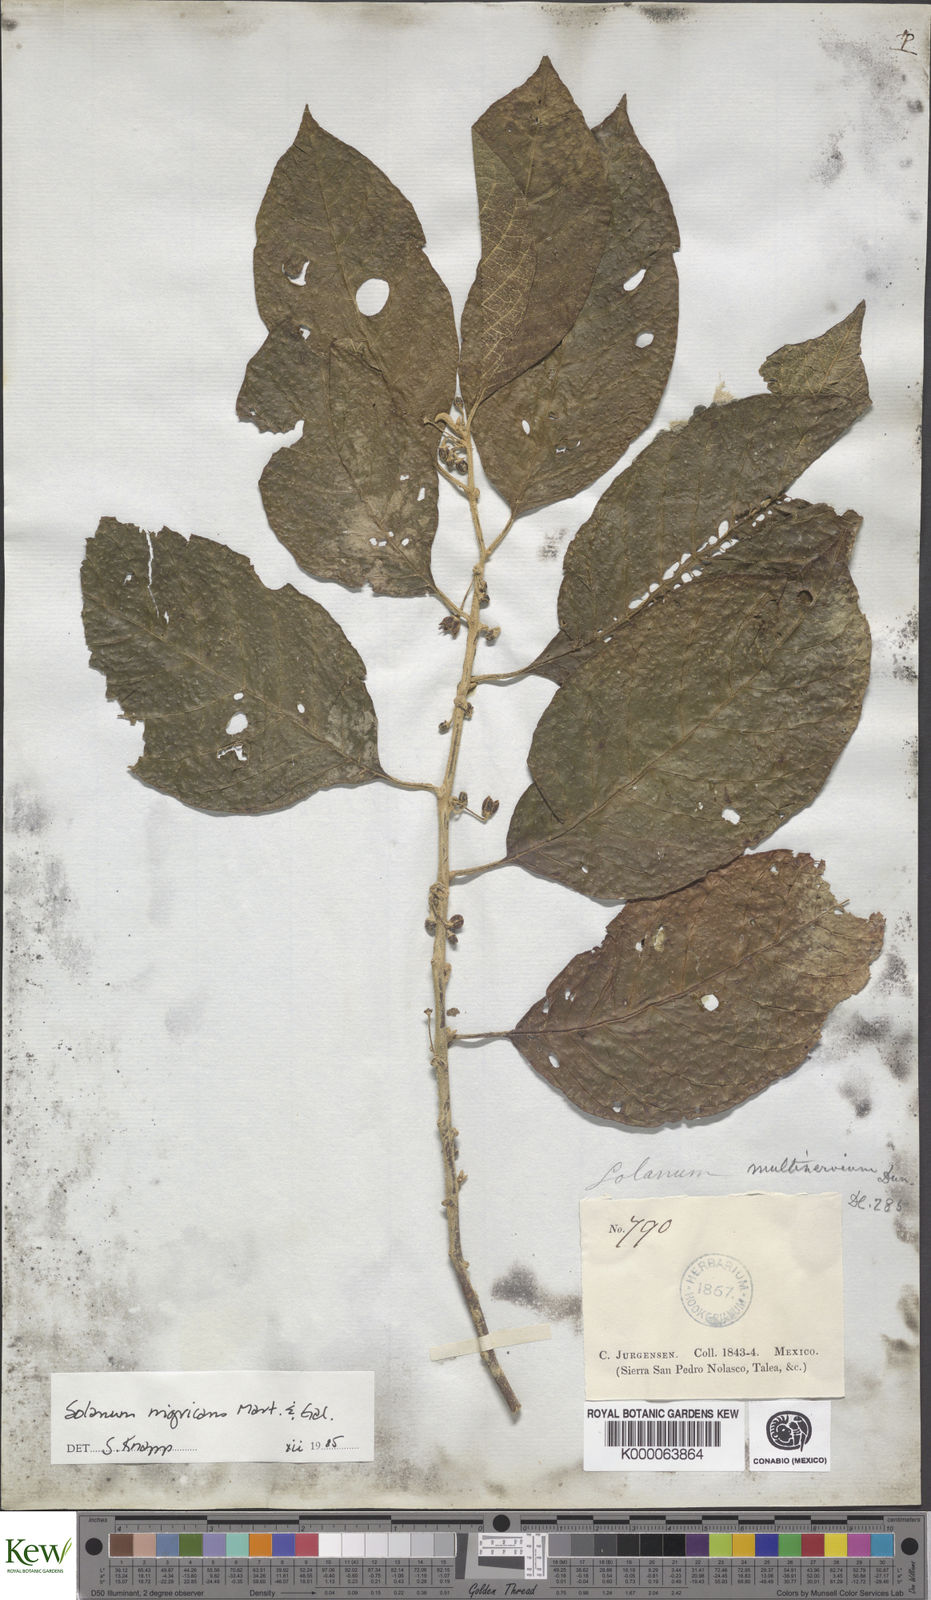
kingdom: Plantae
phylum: Tracheophyta
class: Magnoliopsida
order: Solanales
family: Solanaceae
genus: Solanum
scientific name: Solanum nigricans
